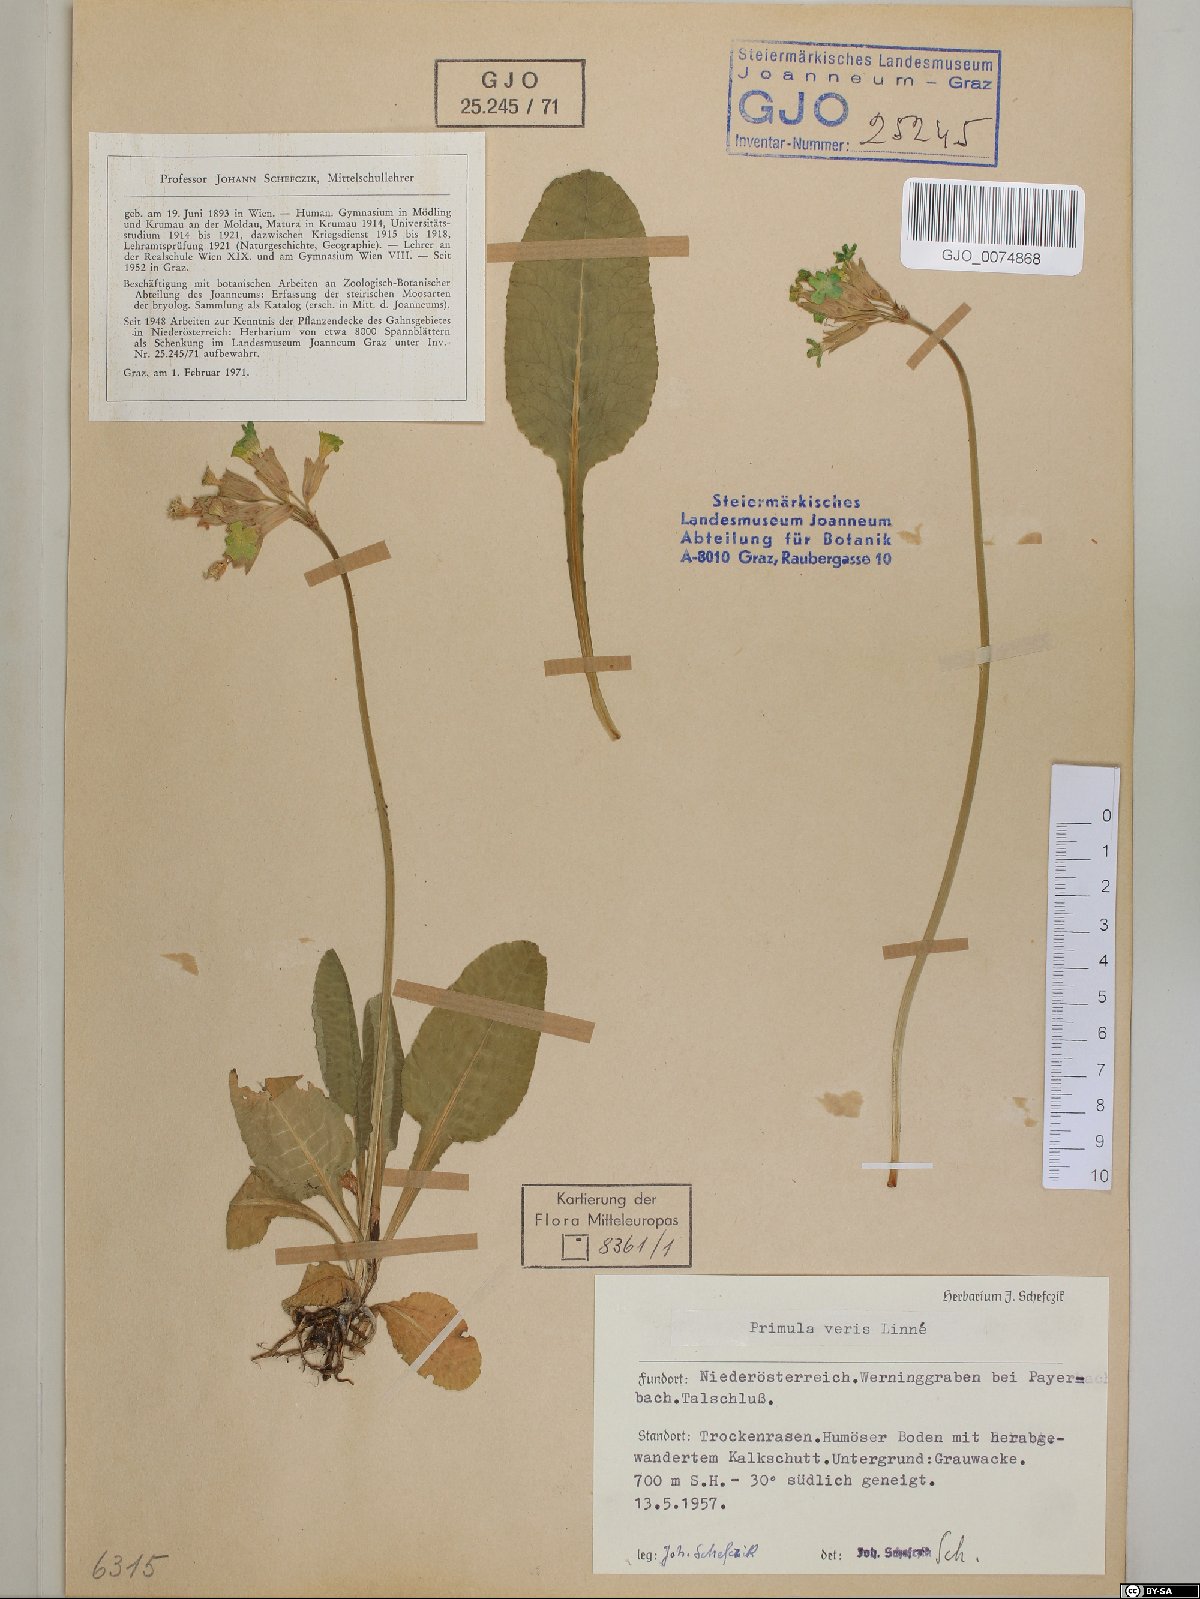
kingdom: Plantae
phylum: Tracheophyta
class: Magnoliopsida
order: Ericales
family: Primulaceae
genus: Primula
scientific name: Primula veris
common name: Cowslip
